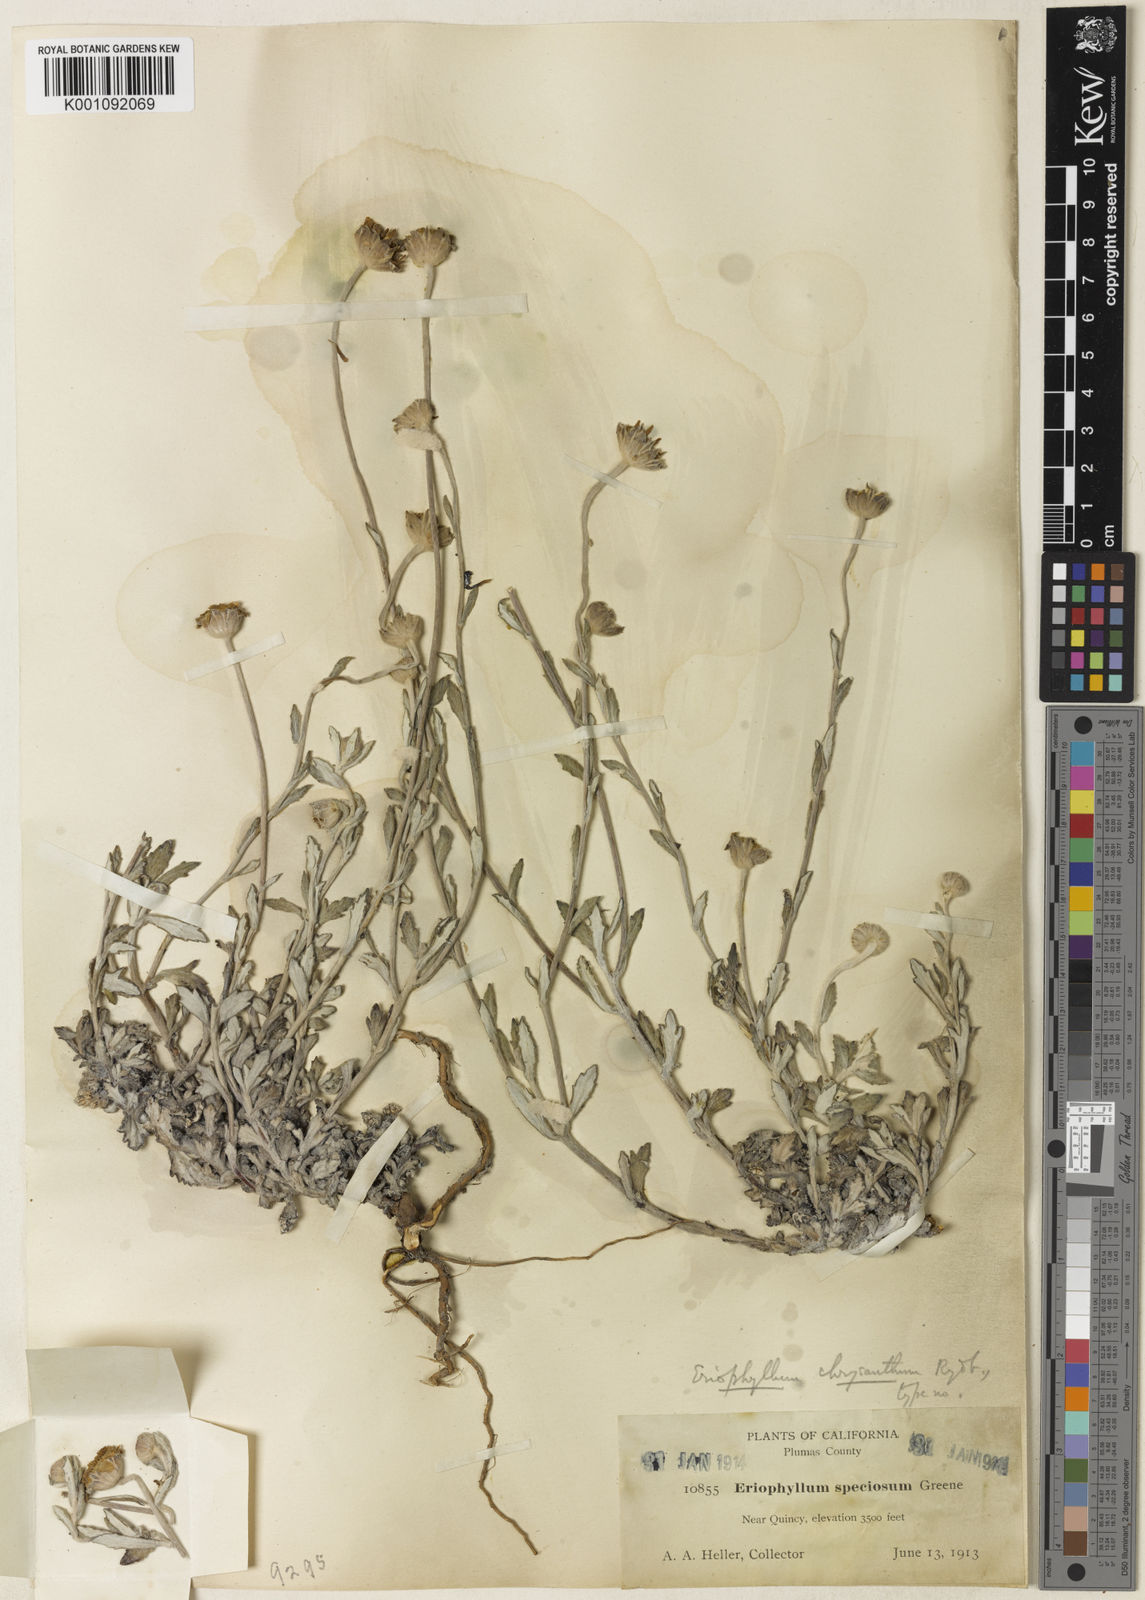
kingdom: Plantae
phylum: Tracheophyta
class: Magnoliopsida
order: Asterales
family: Asteraceae
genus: Eriophyllum
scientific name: Eriophyllum lanatum
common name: Common woolly-sunflower
